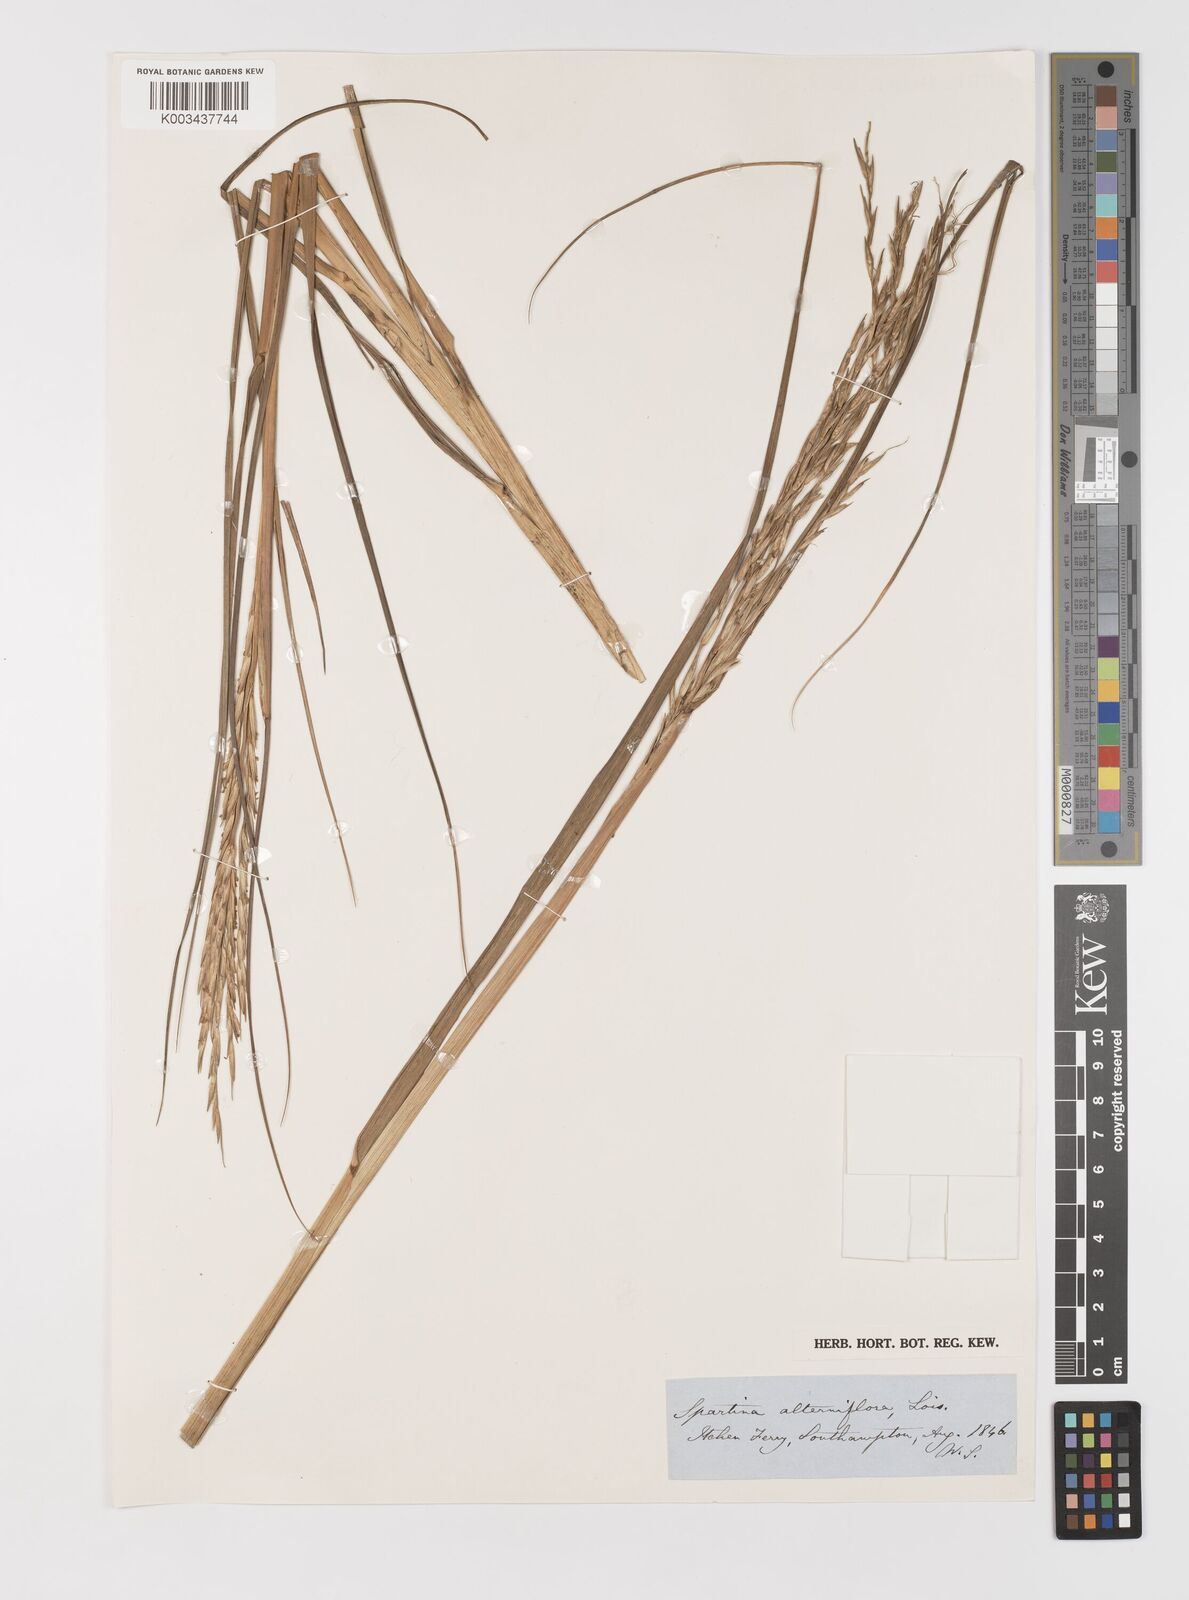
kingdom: Plantae
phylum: Tracheophyta
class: Liliopsida
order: Poales
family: Poaceae
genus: Sporobolus
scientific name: Sporobolus alterniflorus
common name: Atlantic cordgrass
